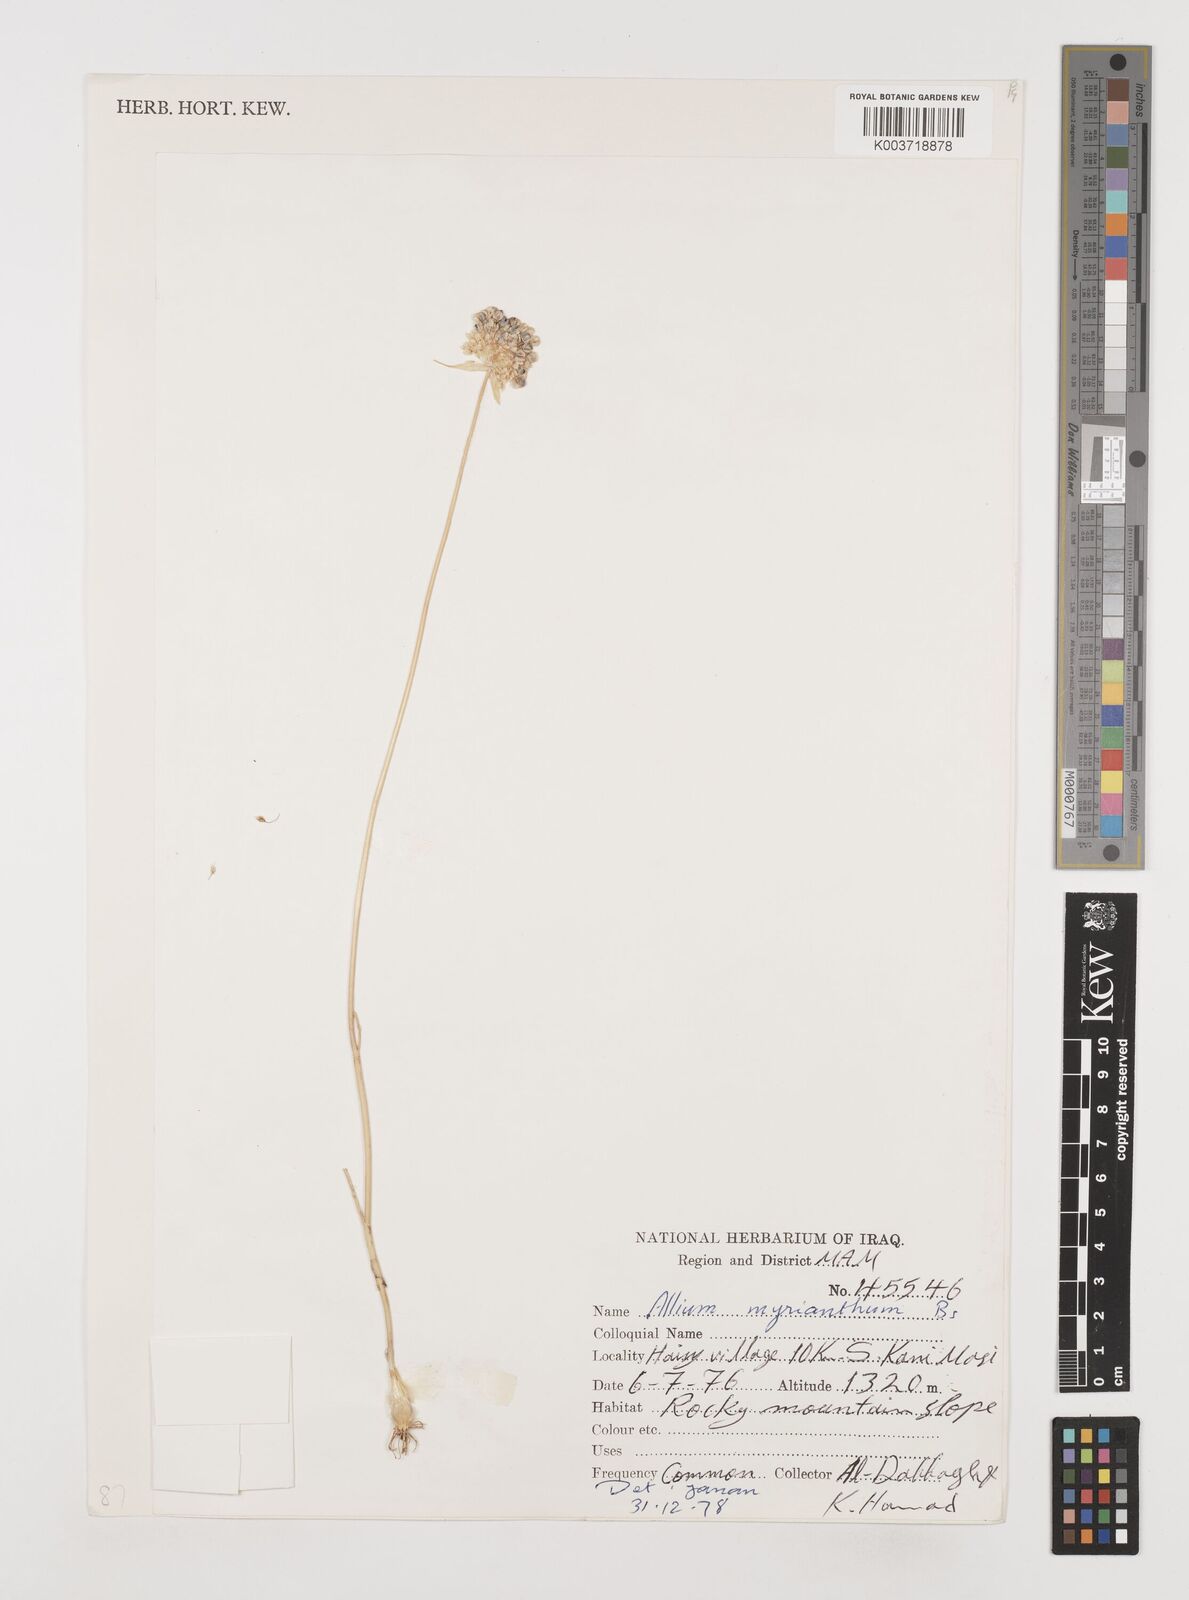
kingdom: Plantae
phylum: Tracheophyta
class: Liliopsida
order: Asparagales
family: Amaryllidaceae
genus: Allium
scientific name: Allium myrianthum
